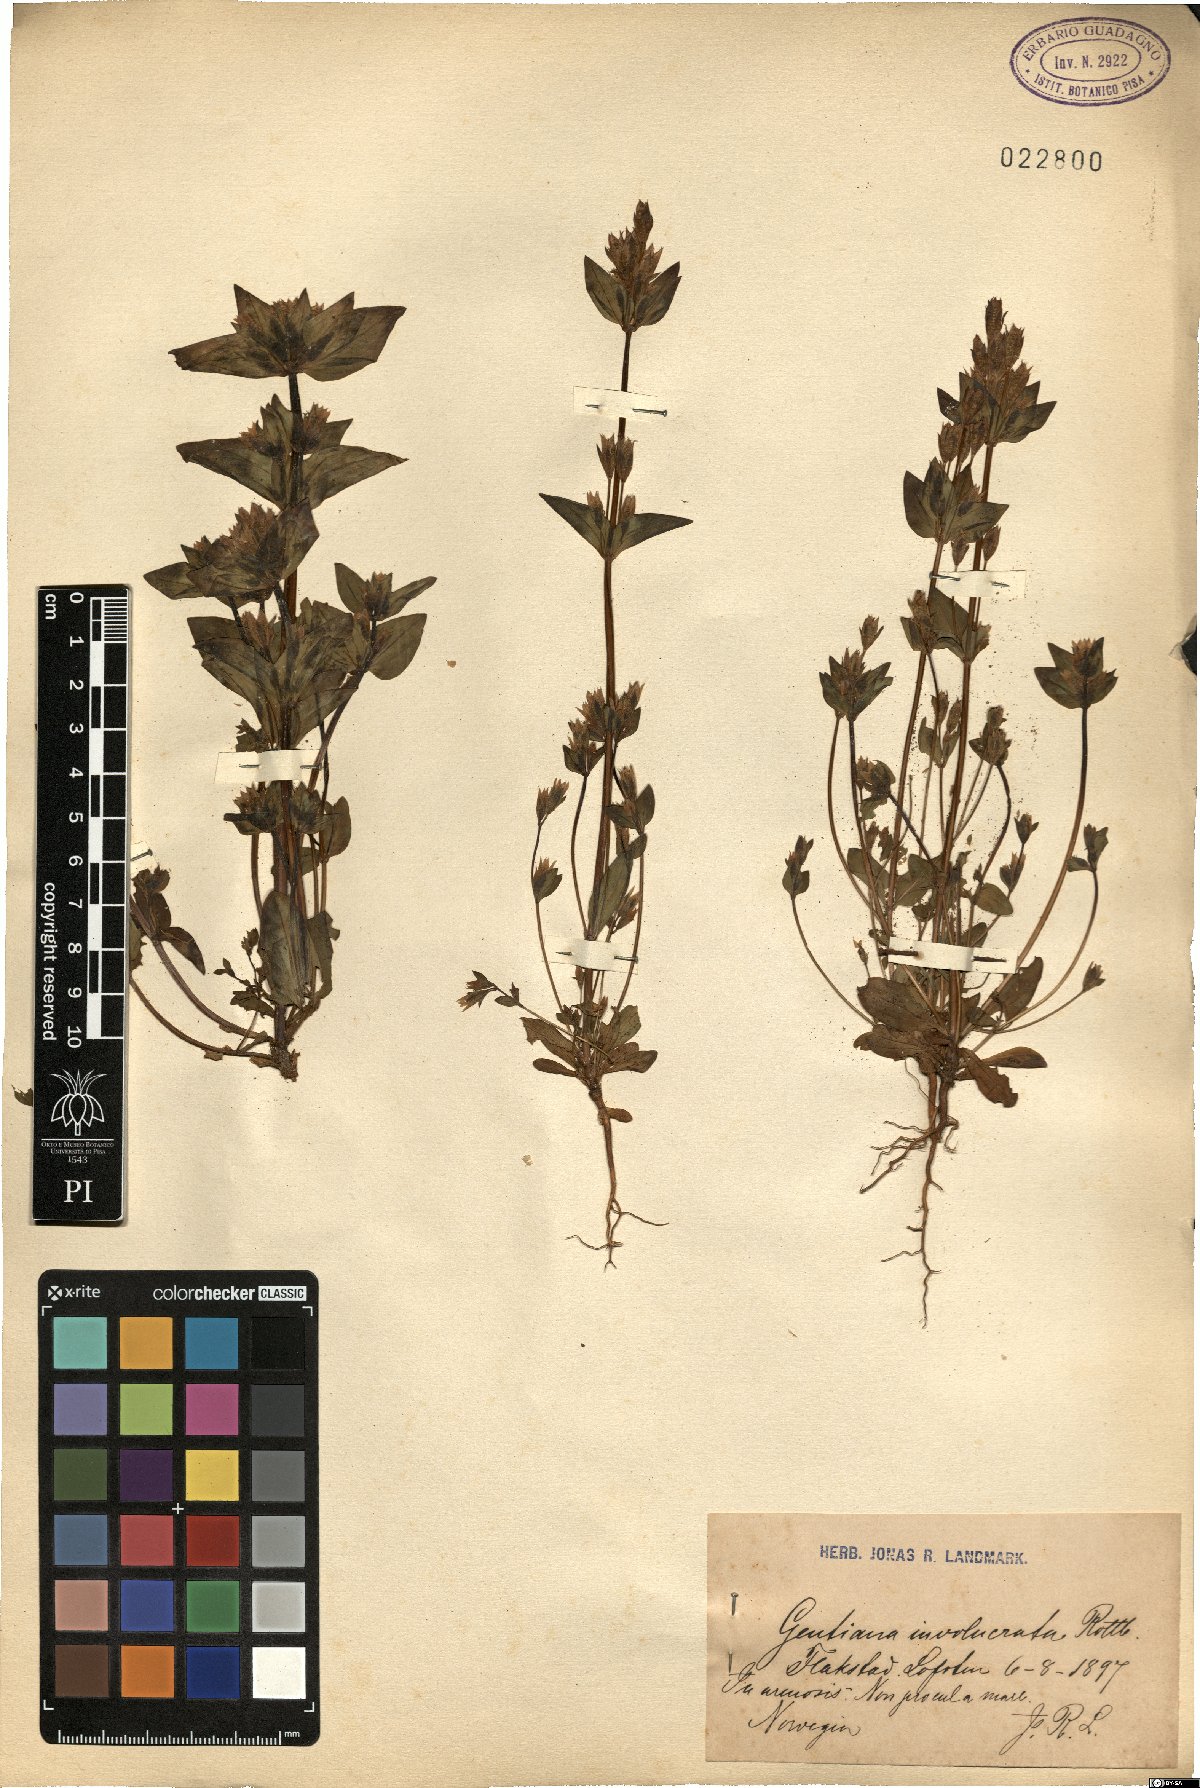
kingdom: Plantae
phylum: Tracheophyta
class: Magnoliopsida
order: Gentianales
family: Gentianaceae
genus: Gentianella
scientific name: Gentianella aurea
